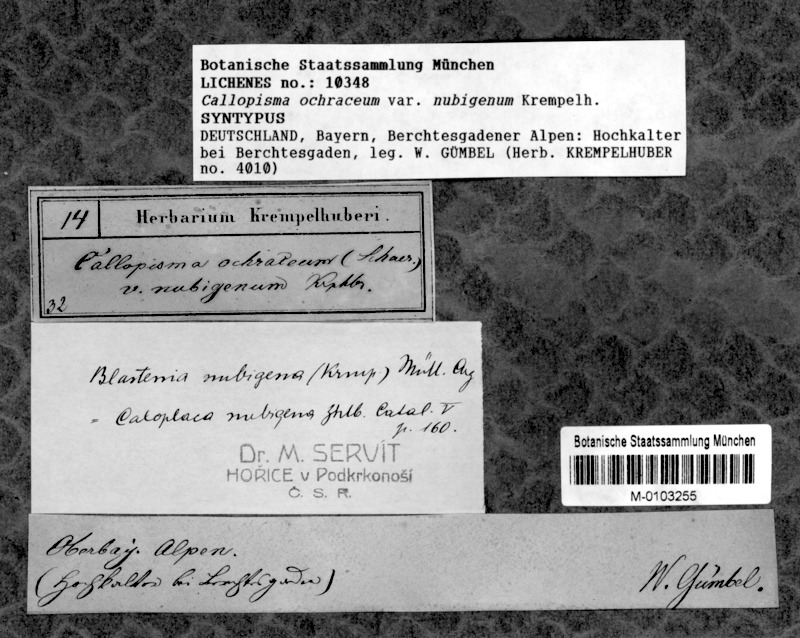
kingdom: Fungi
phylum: Ascomycota
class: Lecanoromycetes
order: Teloschistales
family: Teloschistaceae
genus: Caloplaca
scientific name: Caloplaca nubigena
